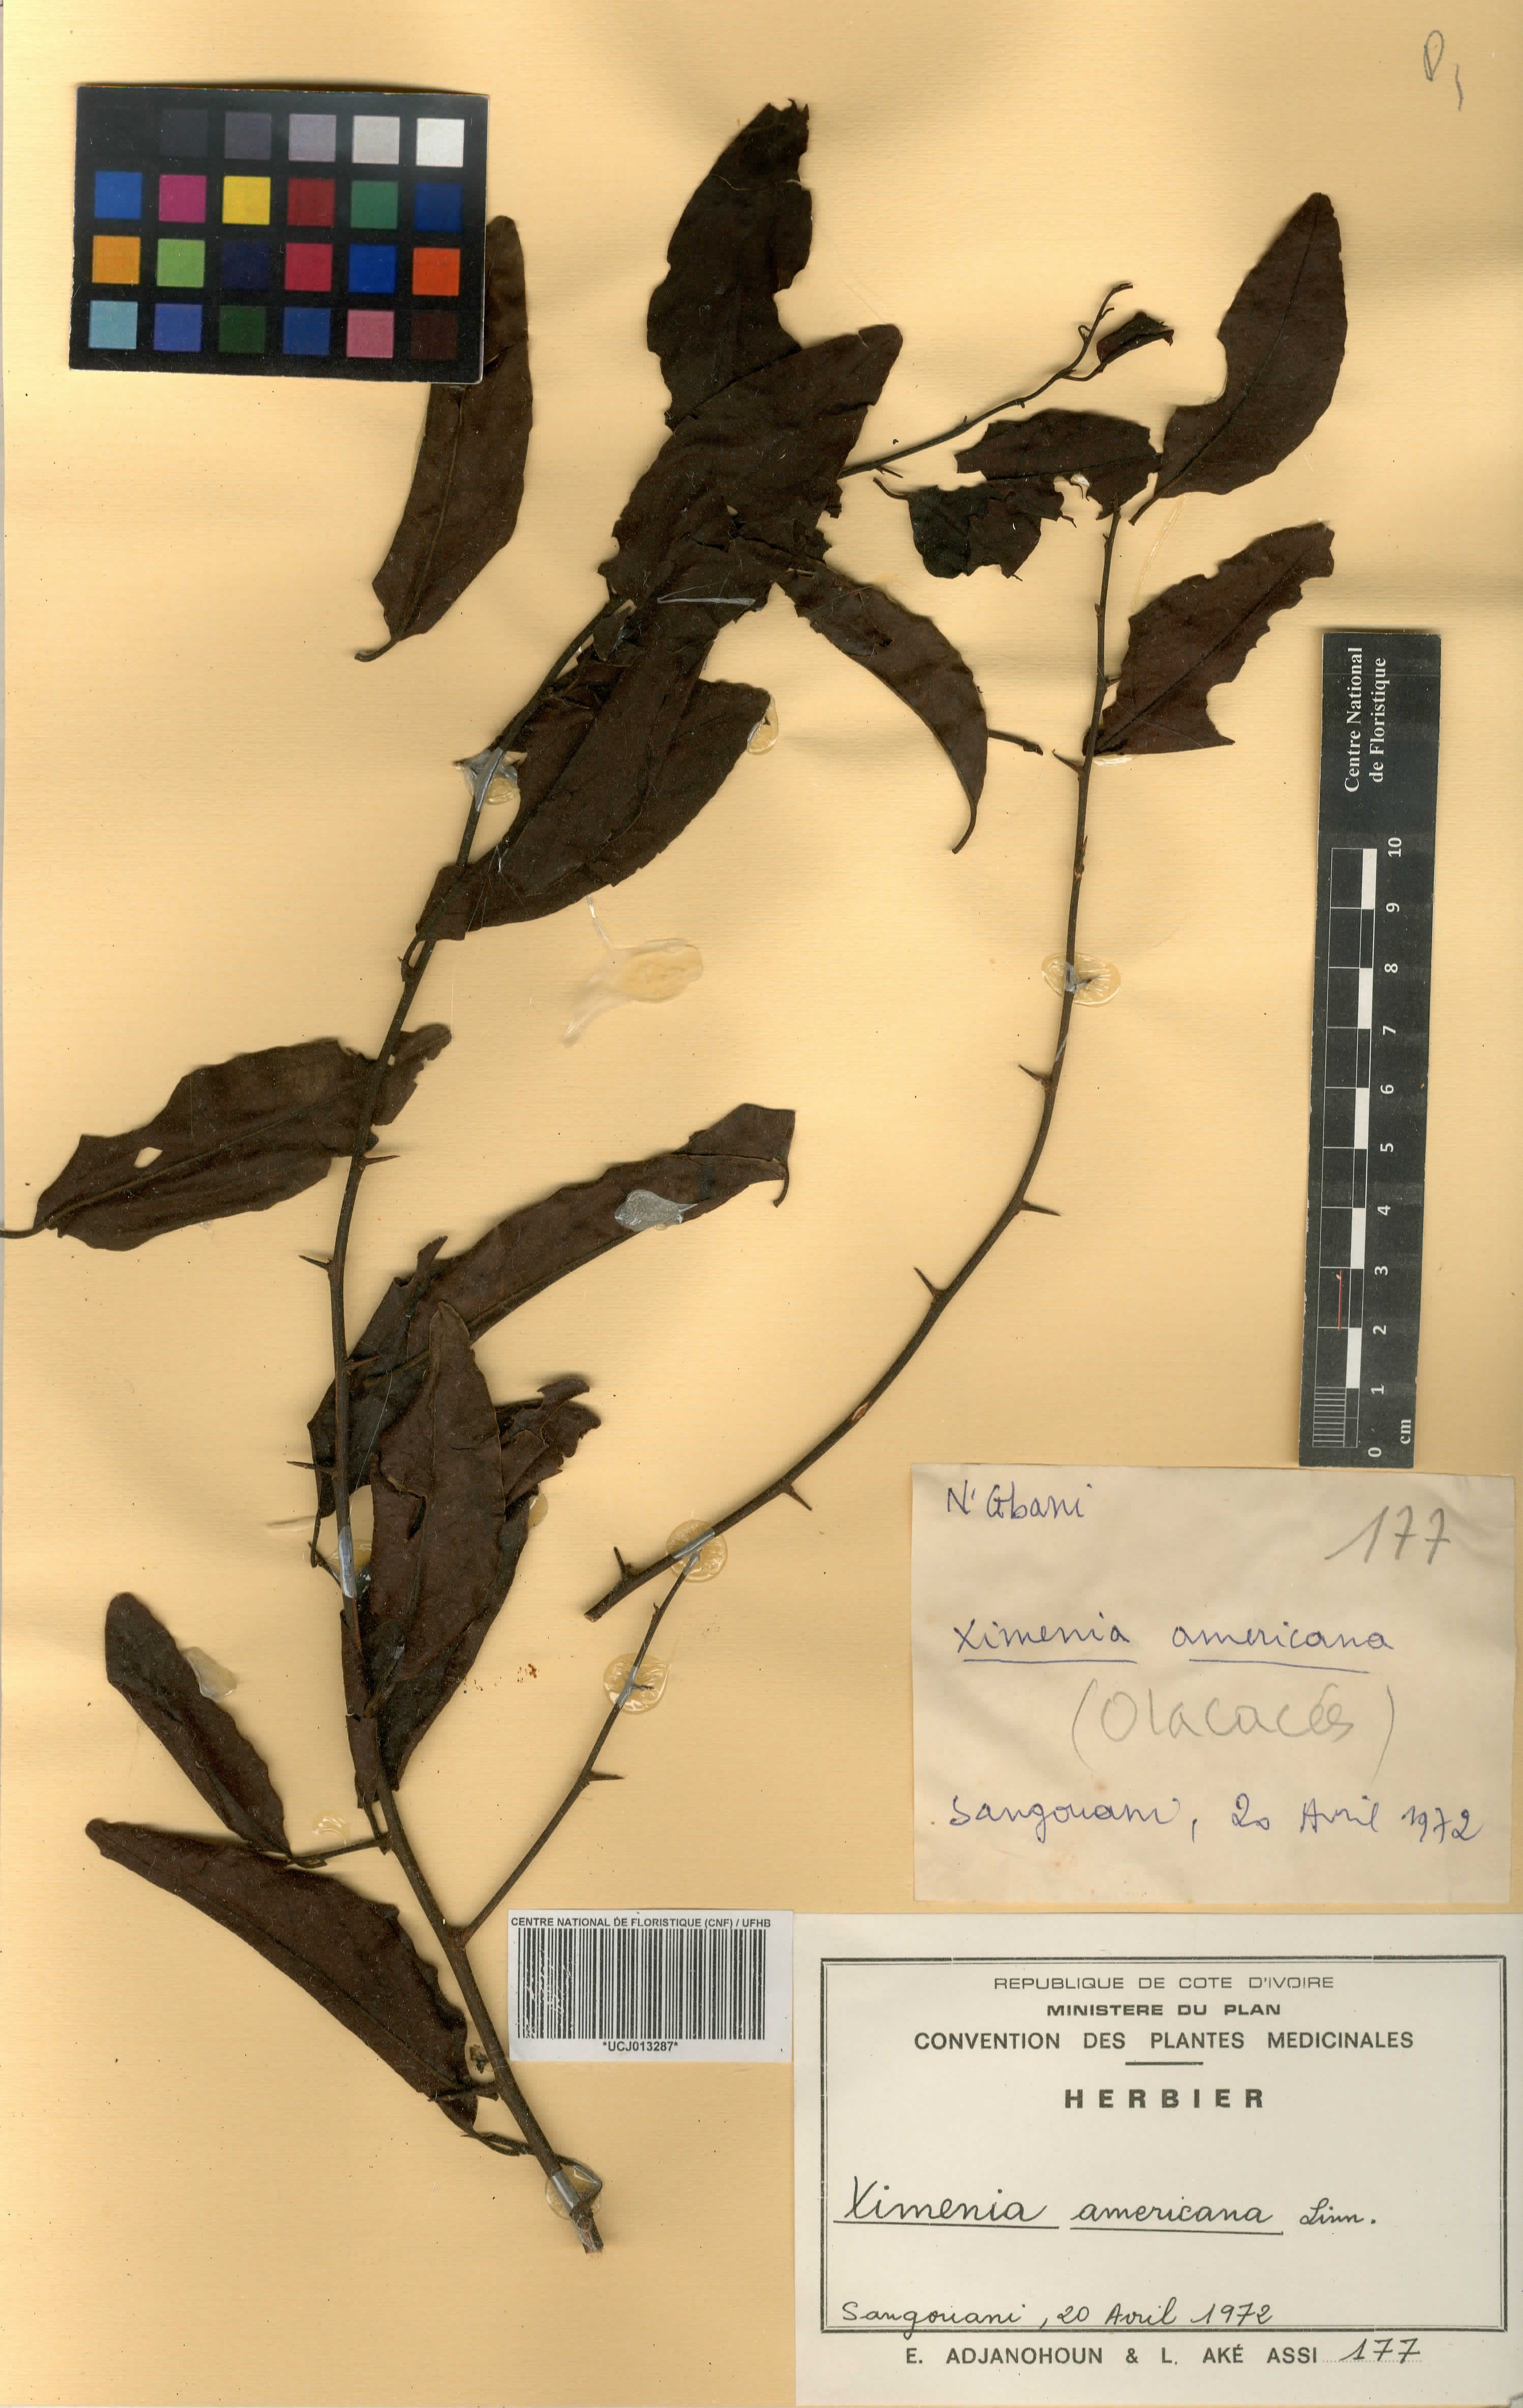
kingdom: Plantae
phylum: Tracheophyta
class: Magnoliopsida
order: Santalales
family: Ximeniaceae
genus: Ximenia
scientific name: Ximenia americana
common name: Tallowwood
